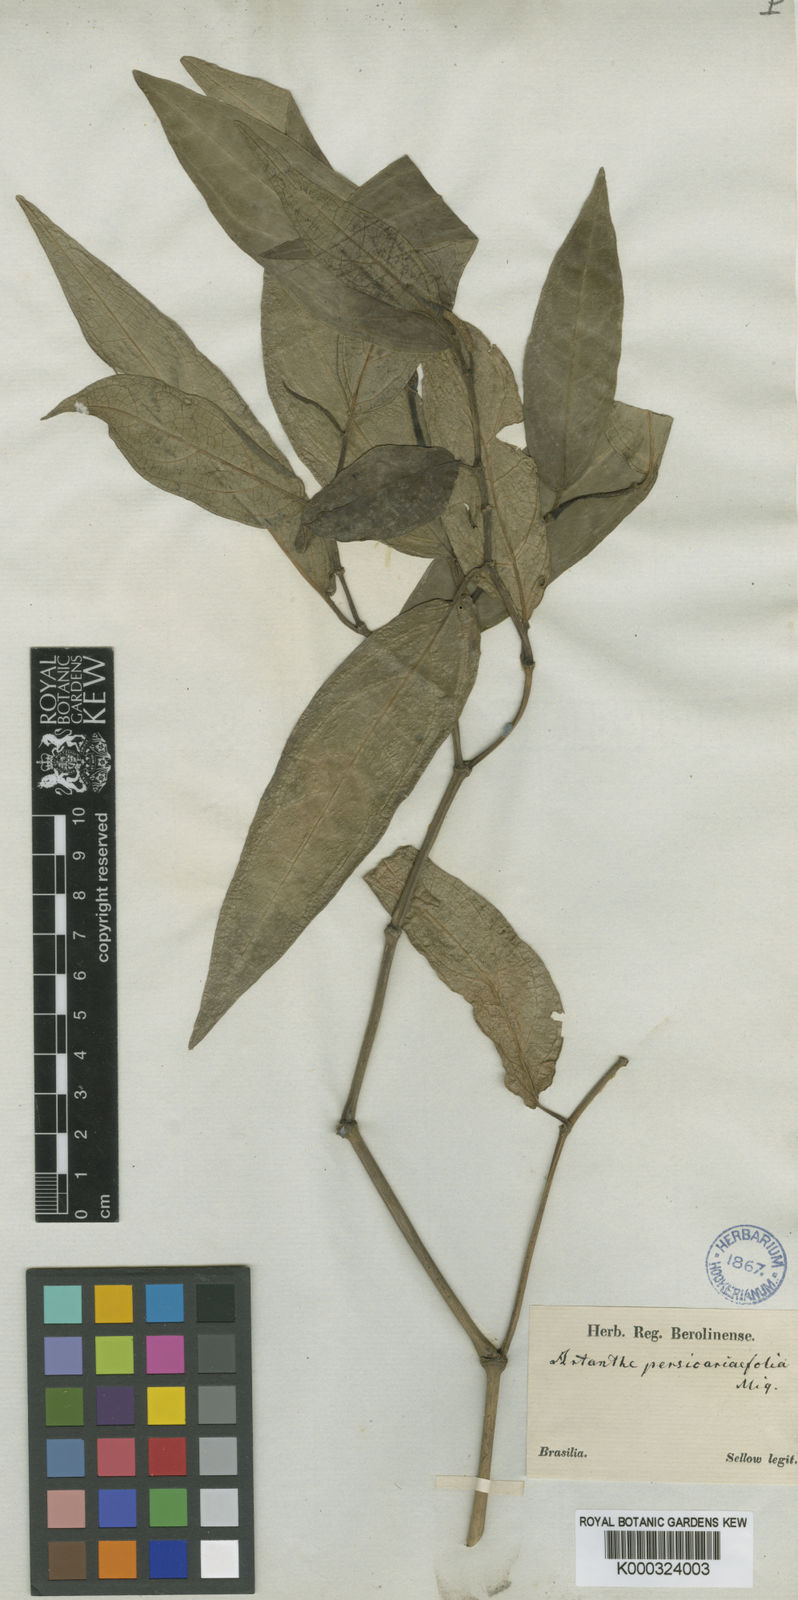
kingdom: Plantae
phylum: Tracheophyta
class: Magnoliopsida
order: Piperales
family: Piperaceae
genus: Piper
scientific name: Piper
